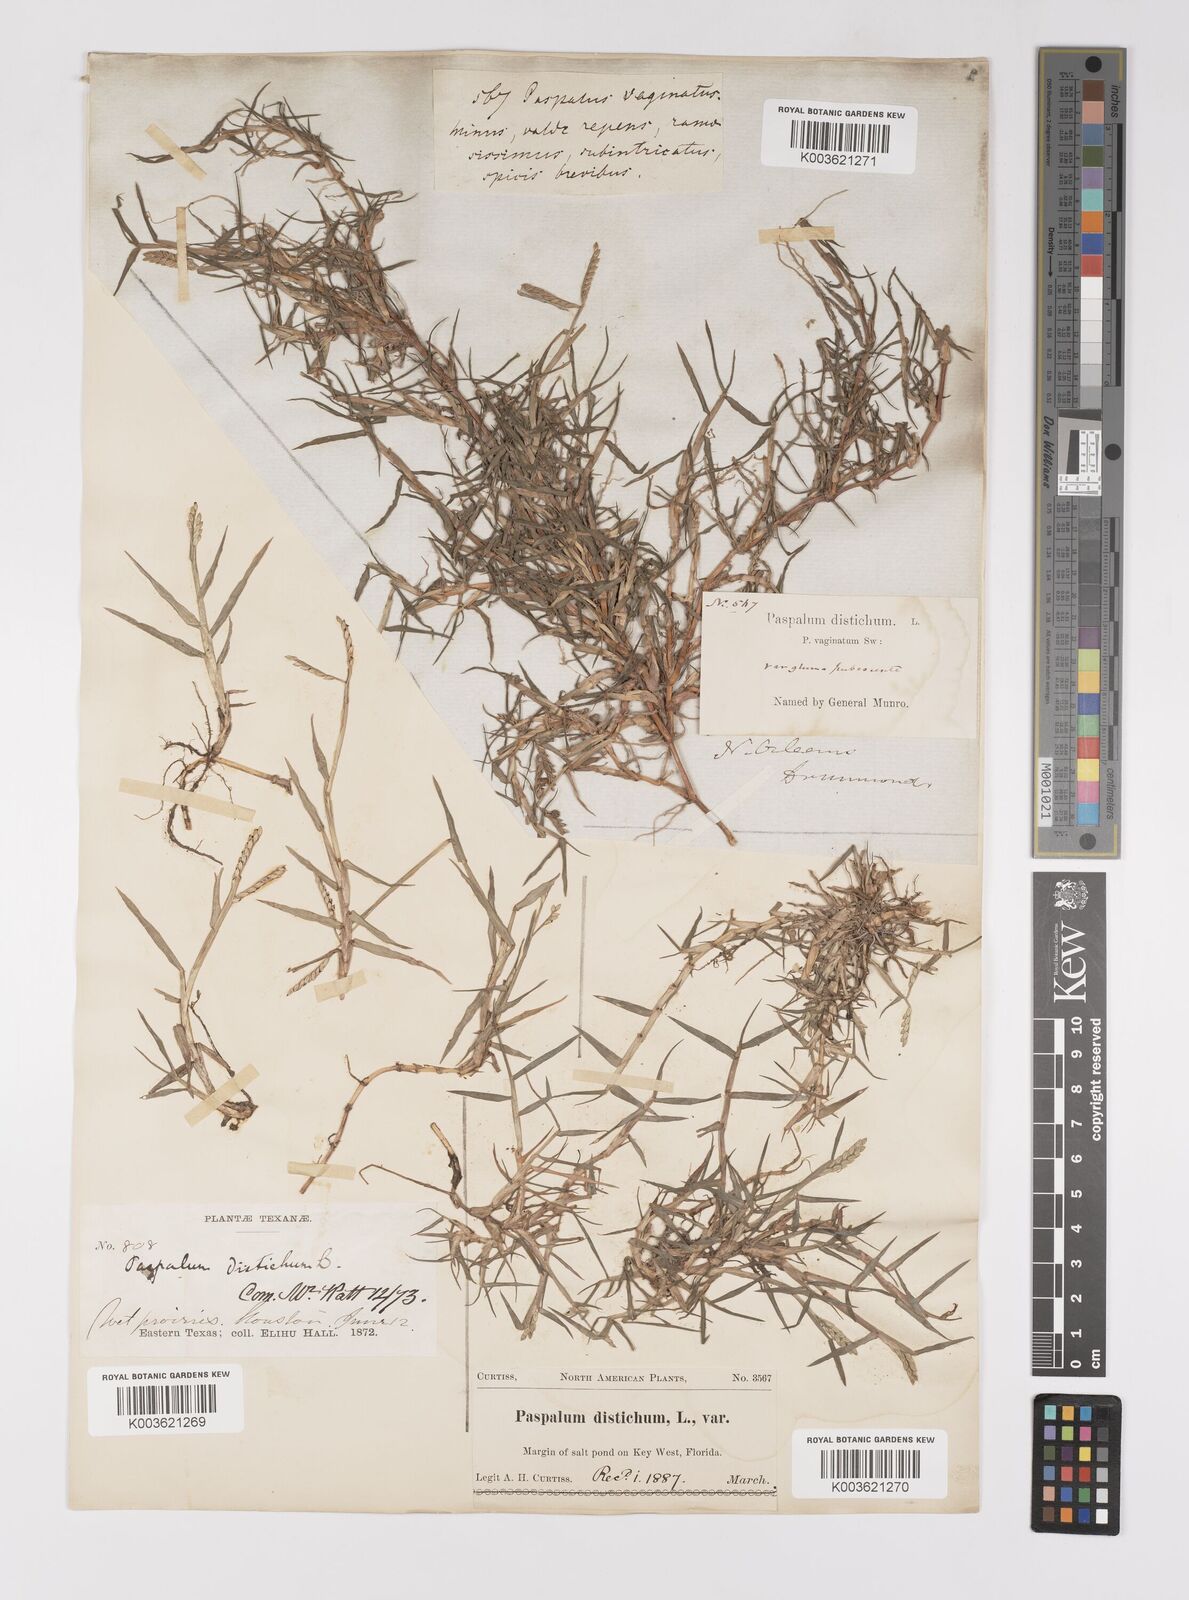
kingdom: Plantae
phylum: Tracheophyta
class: Liliopsida
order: Poales
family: Poaceae
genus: Paspalum
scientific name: Paspalum distichum
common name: Knotgrass
